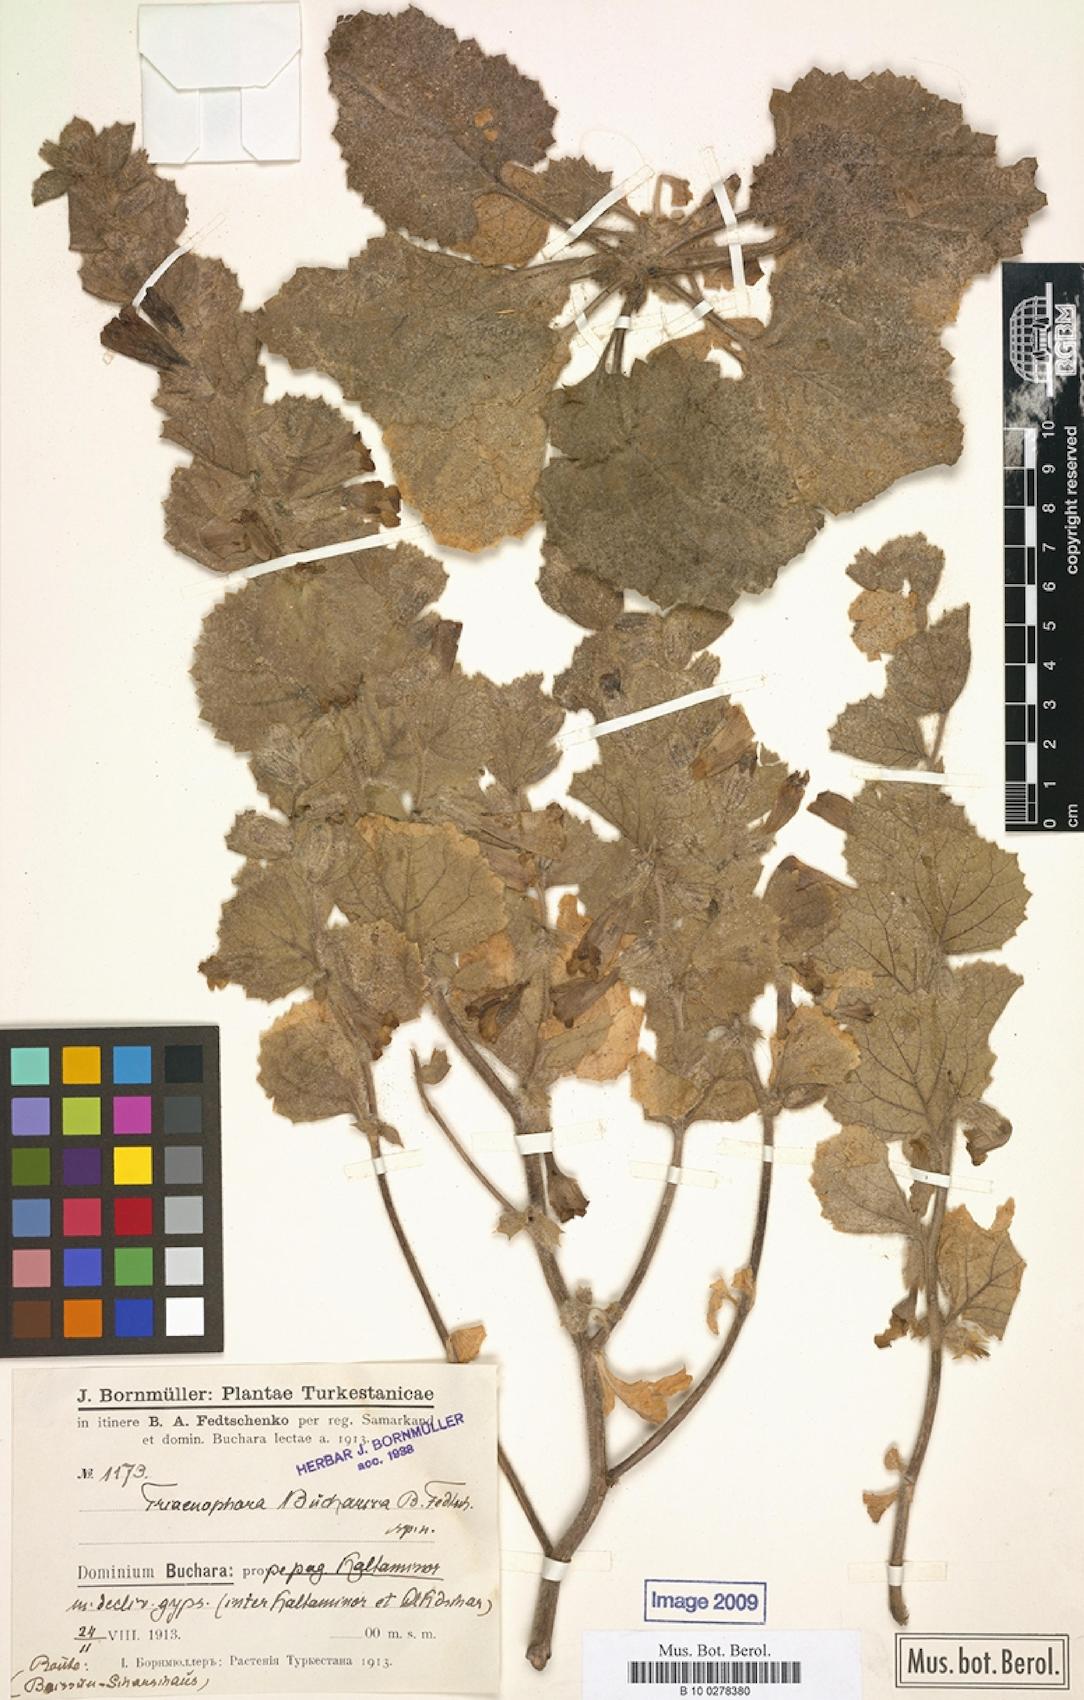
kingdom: Plantae
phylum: Tracheophyta
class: Magnoliopsida
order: Lamiales
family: Rehmanniaceae
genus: Triaenophora
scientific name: Triaenophora bucharica
